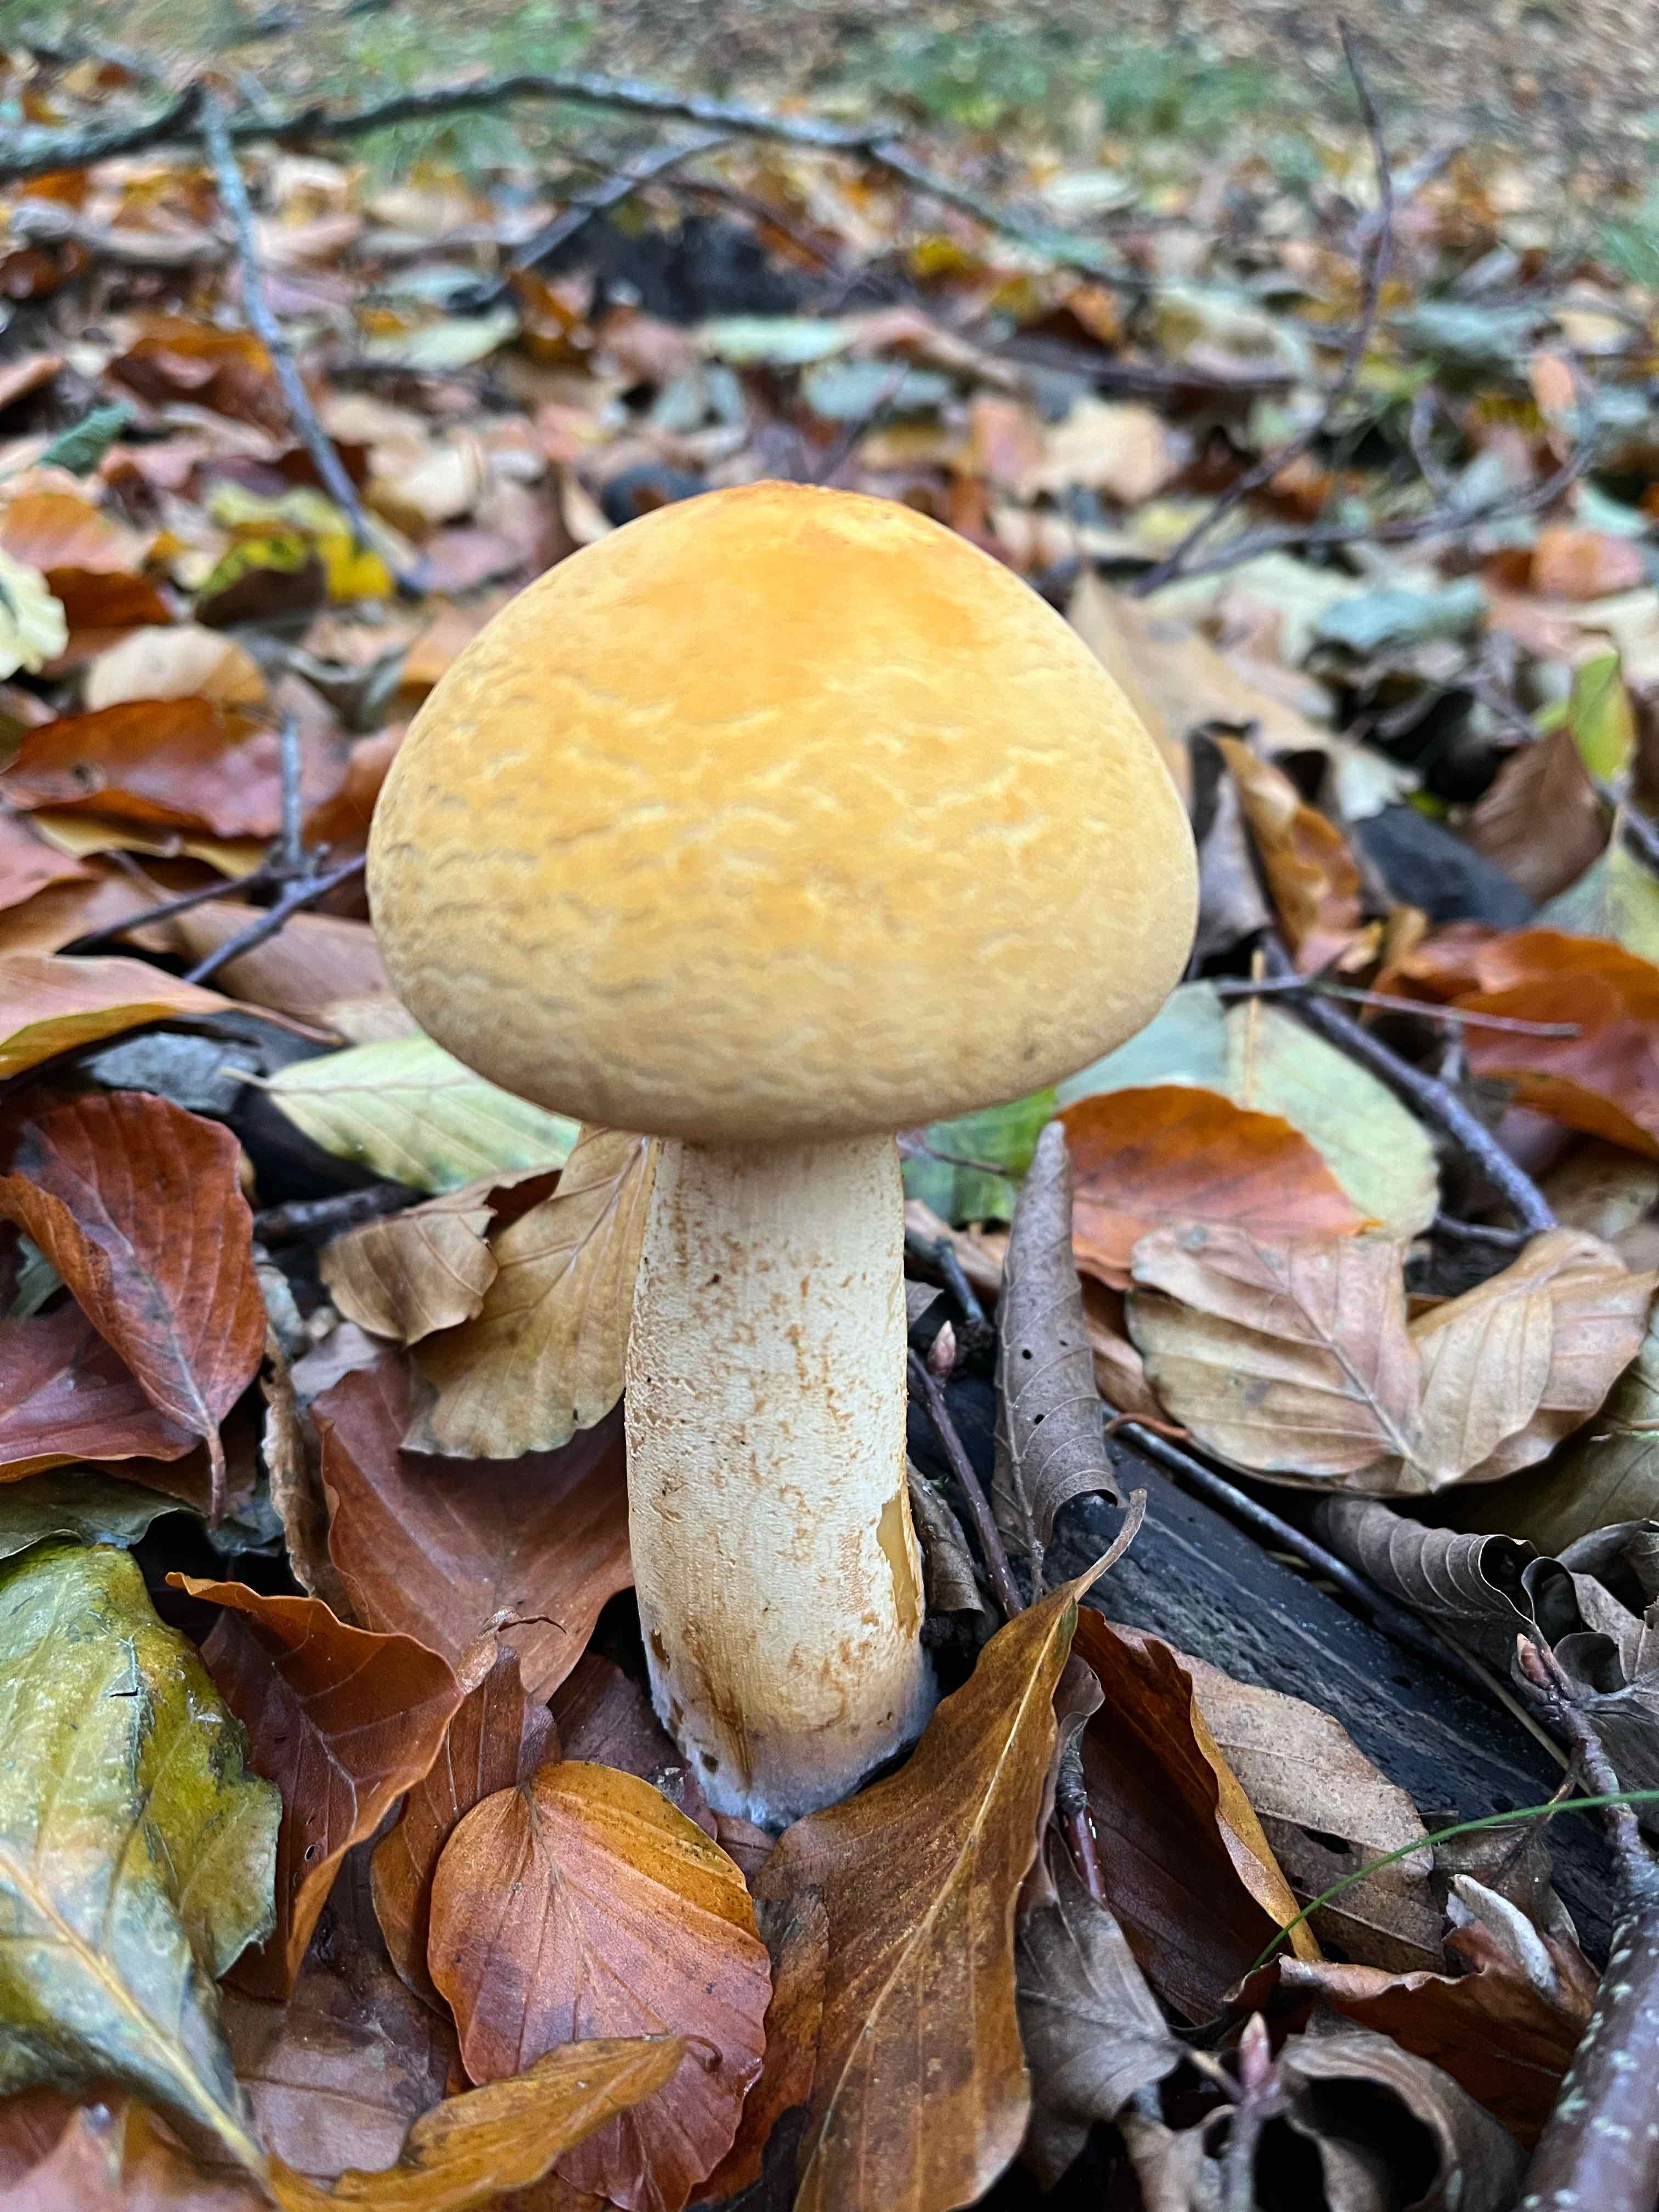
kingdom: Fungi
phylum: Basidiomycota
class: Agaricomycetes
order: Agaricales
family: Tricholomataceae
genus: Phaeolepiota
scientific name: Phaeolepiota aurea
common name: gyldenhat
